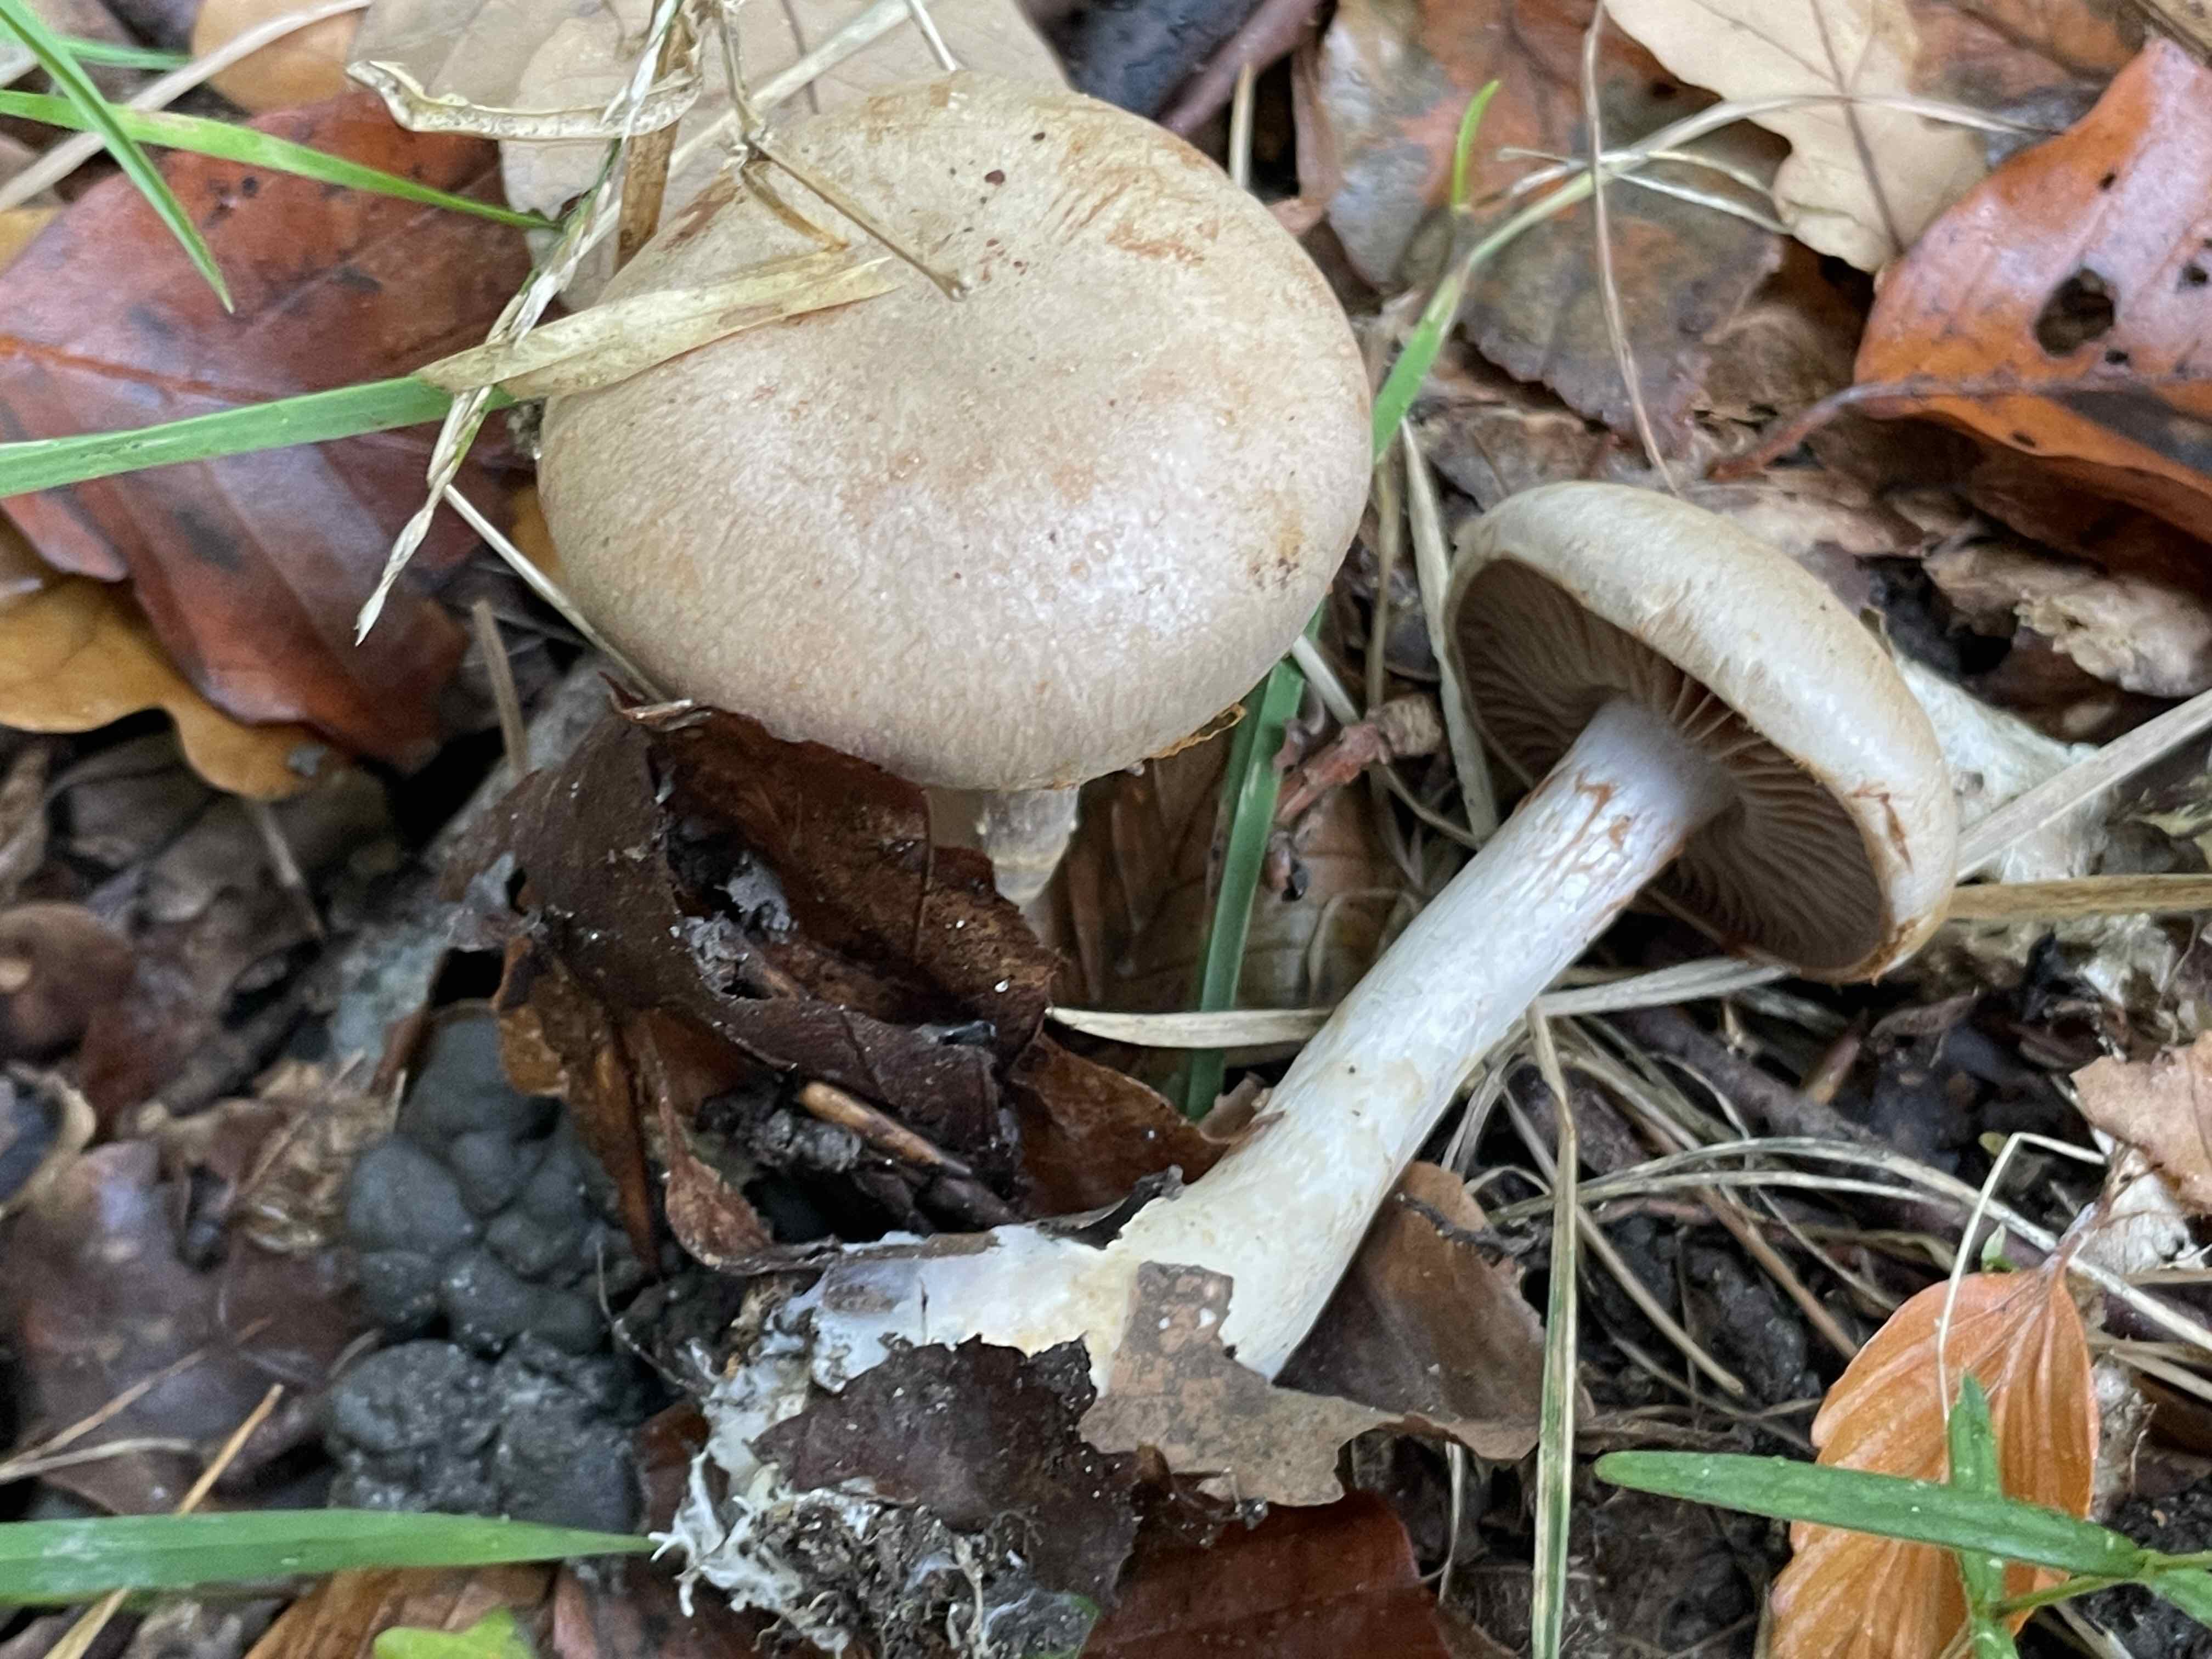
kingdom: Fungi
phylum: Basidiomycota
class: Agaricomycetes
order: Agaricales
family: Cortinariaceae
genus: Cortinarius
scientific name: Cortinarius
